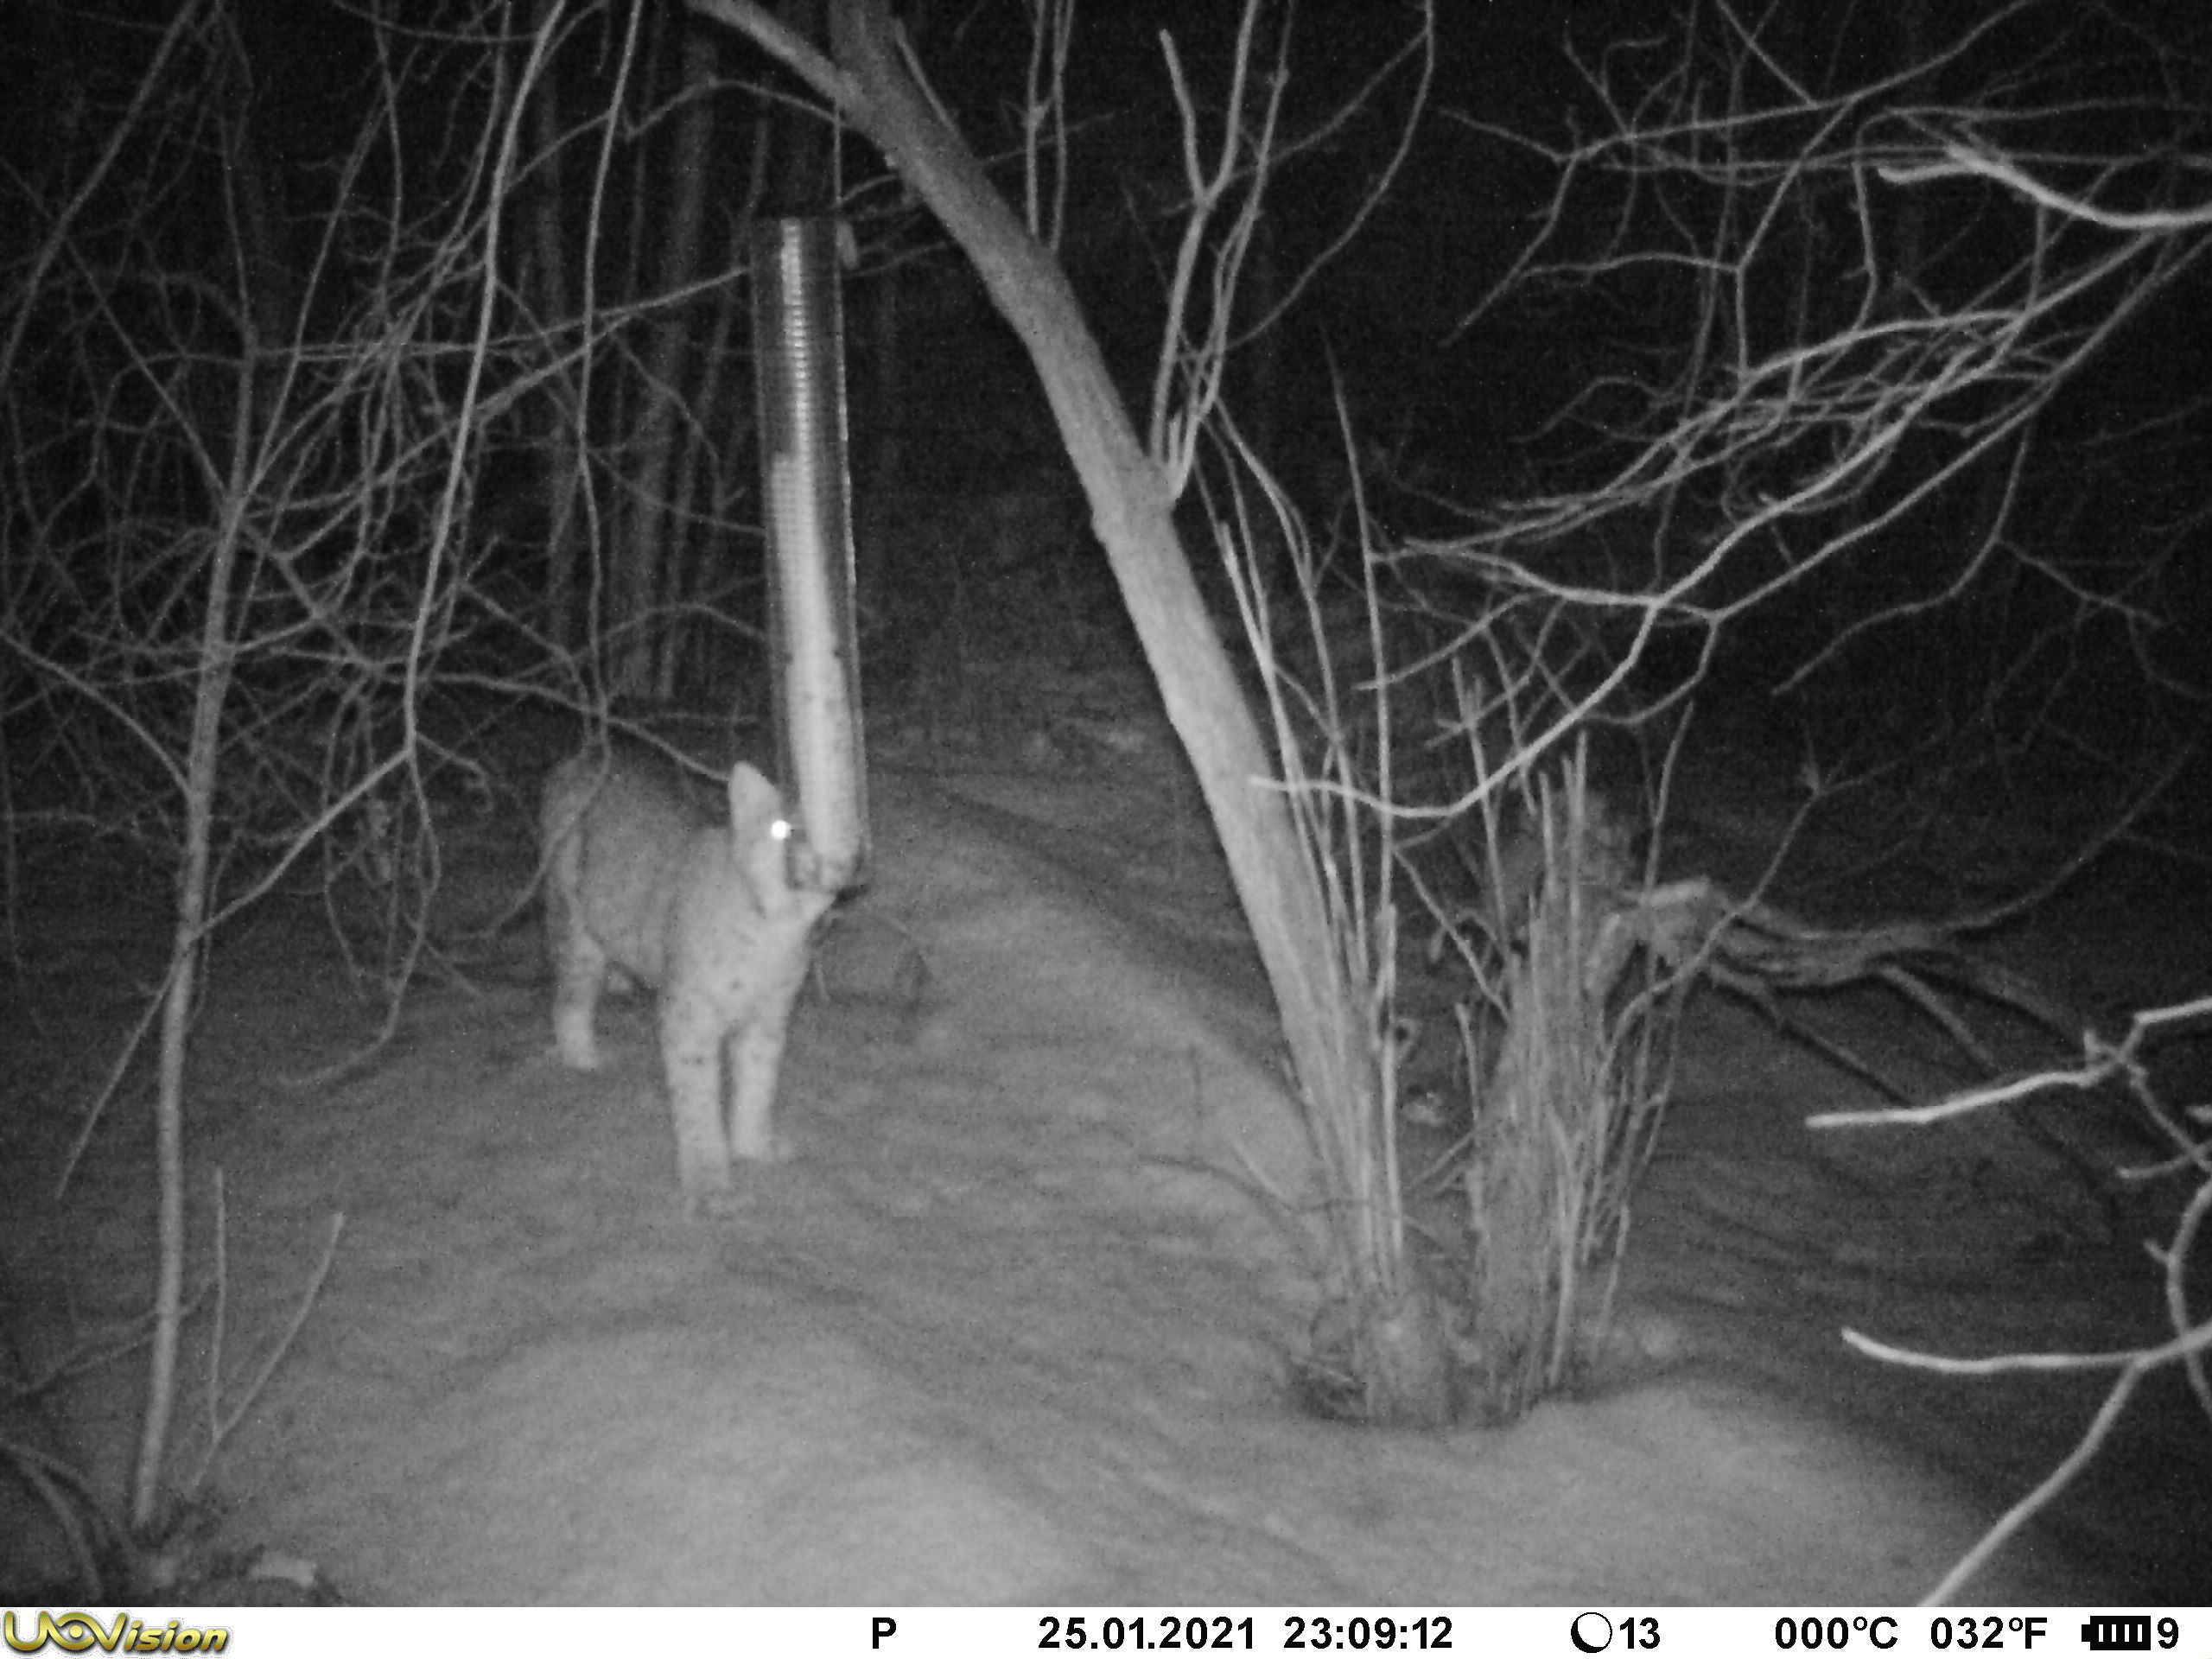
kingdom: Animalia
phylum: Chordata
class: Mammalia
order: Carnivora
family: Felidae
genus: Lynx
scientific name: Lynx lynx
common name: Eurasian lynx
